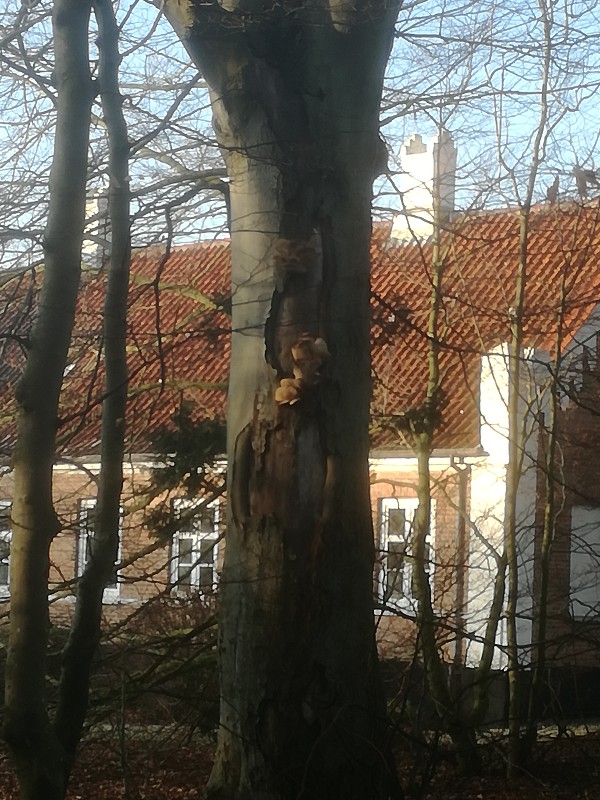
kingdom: Fungi
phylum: Basidiomycota
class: Agaricomycetes
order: Agaricales
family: Pleurotaceae
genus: Pleurotus
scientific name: Pleurotus ostreatus
